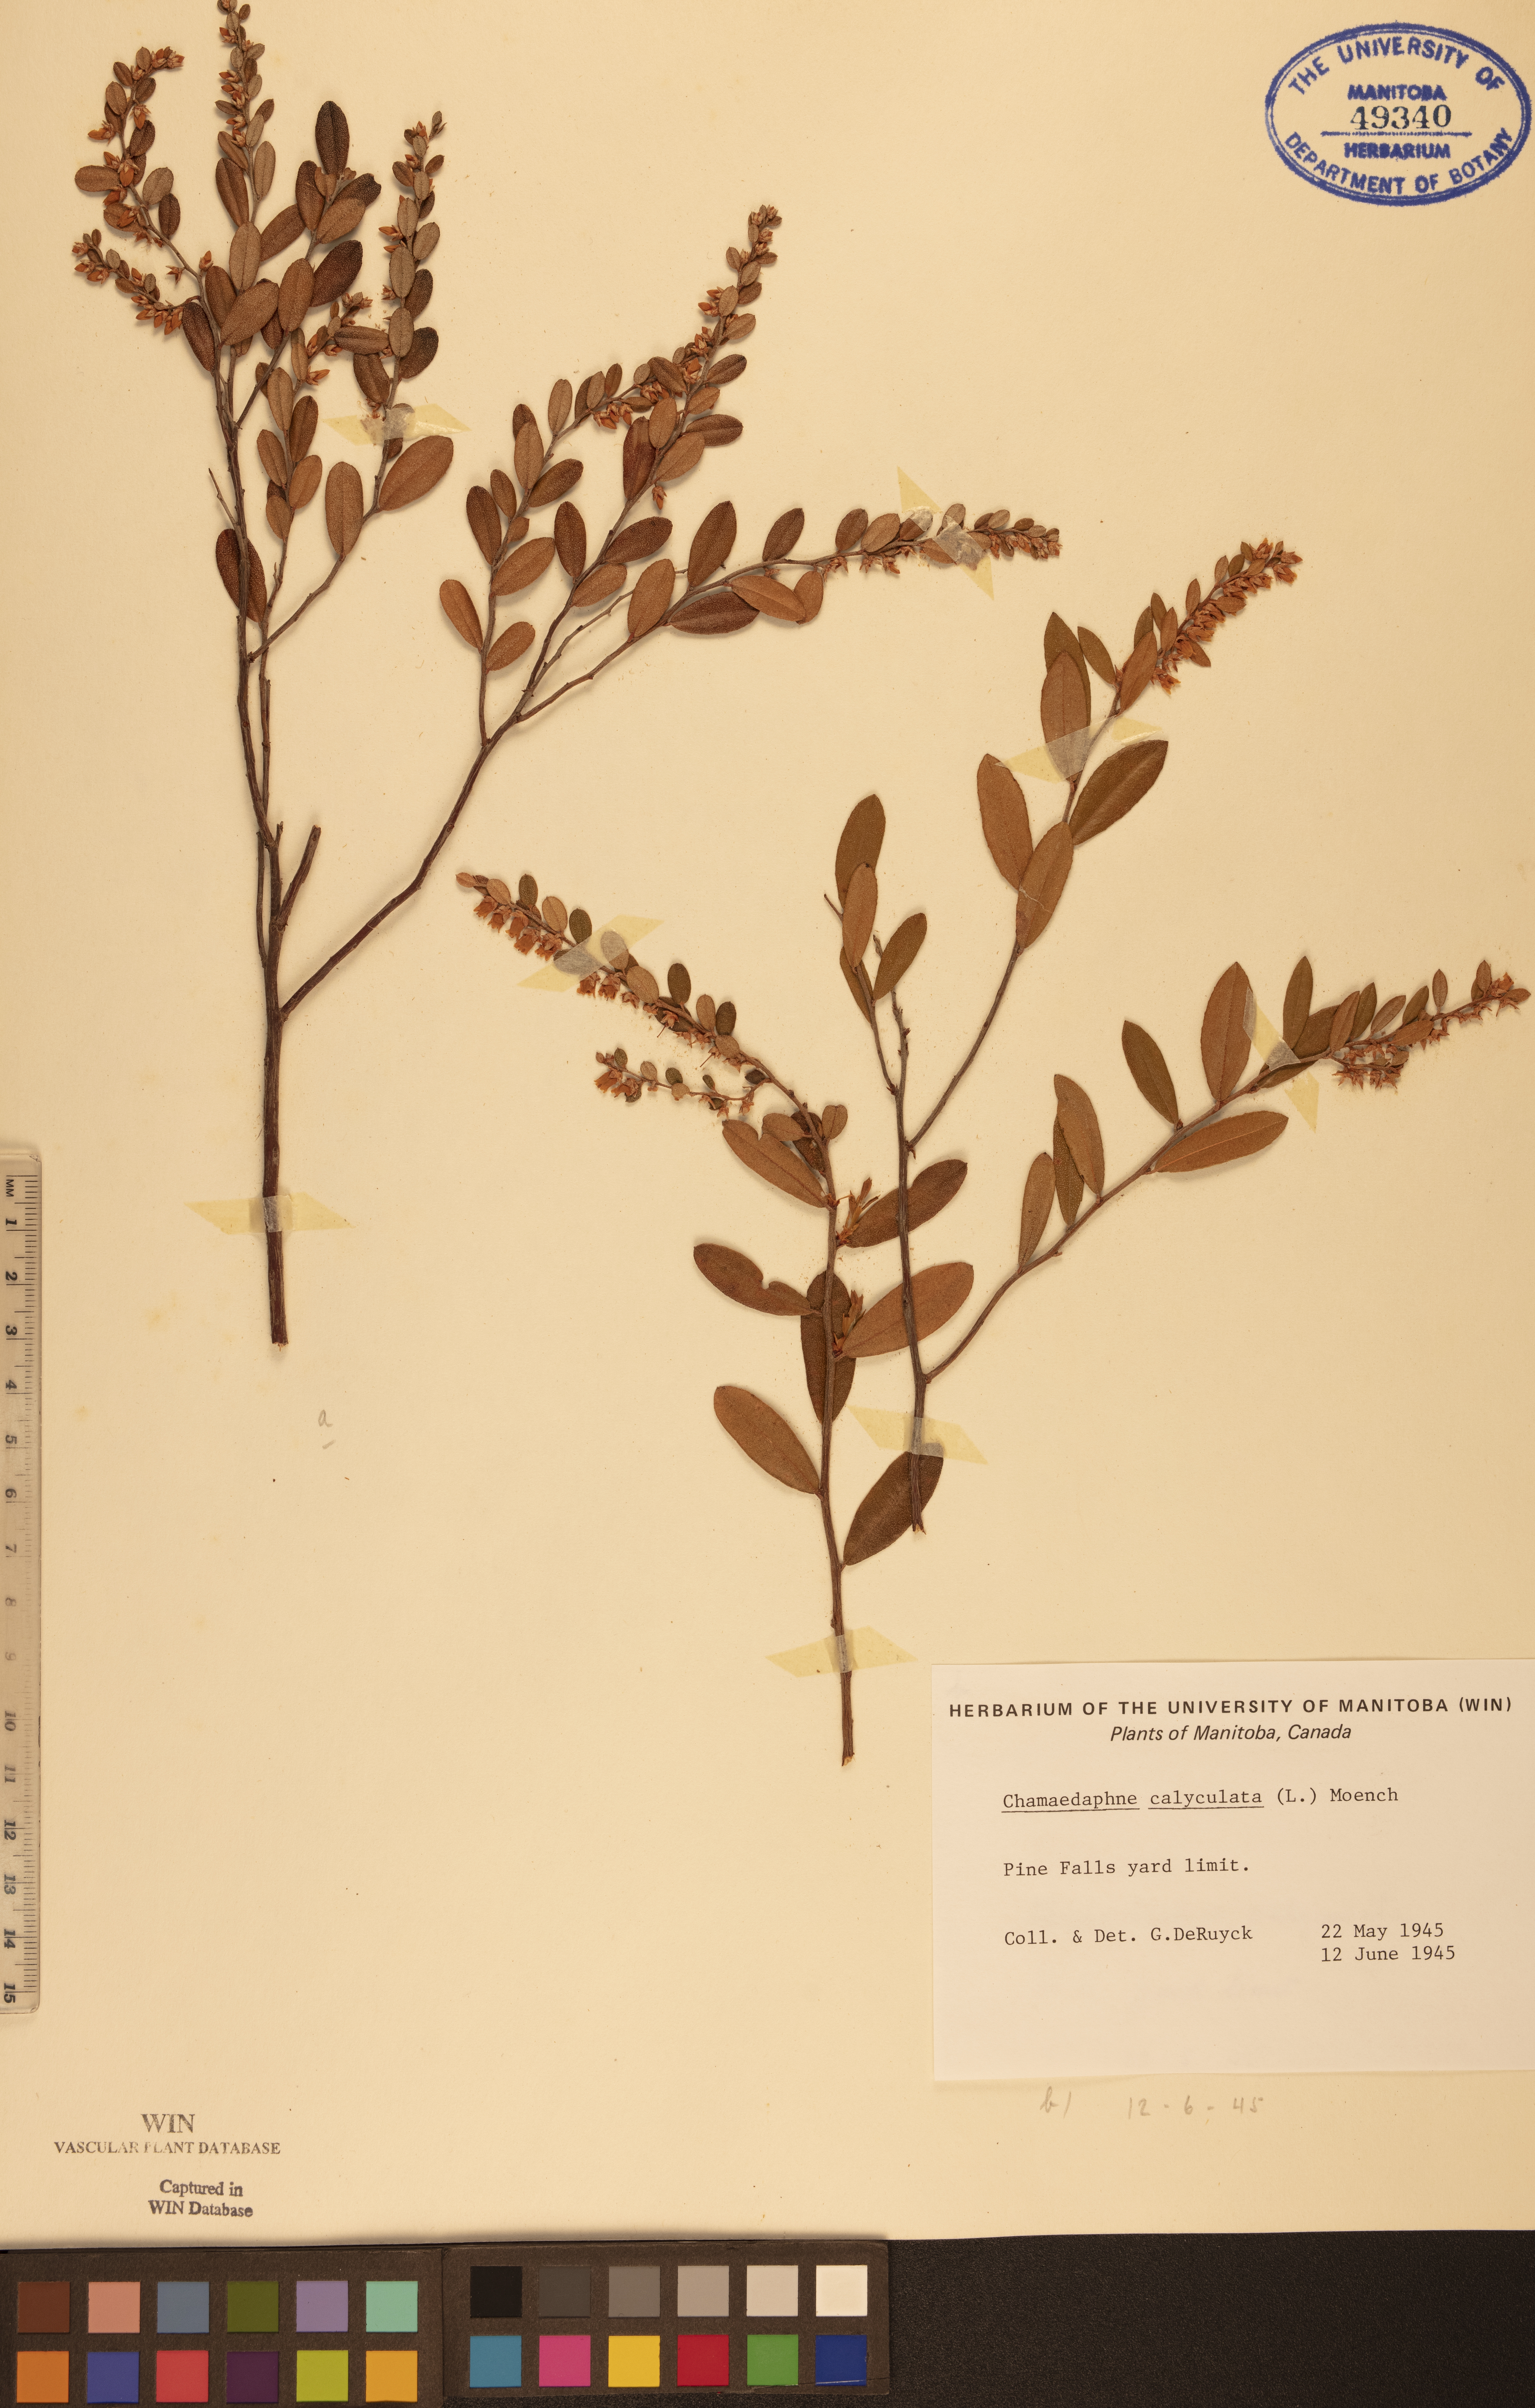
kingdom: Plantae
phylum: Tracheophyta
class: Magnoliopsida
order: Ericales
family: Ericaceae
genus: Chamaedaphne
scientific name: Chamaedaphne calyculata
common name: Leatherleaf
